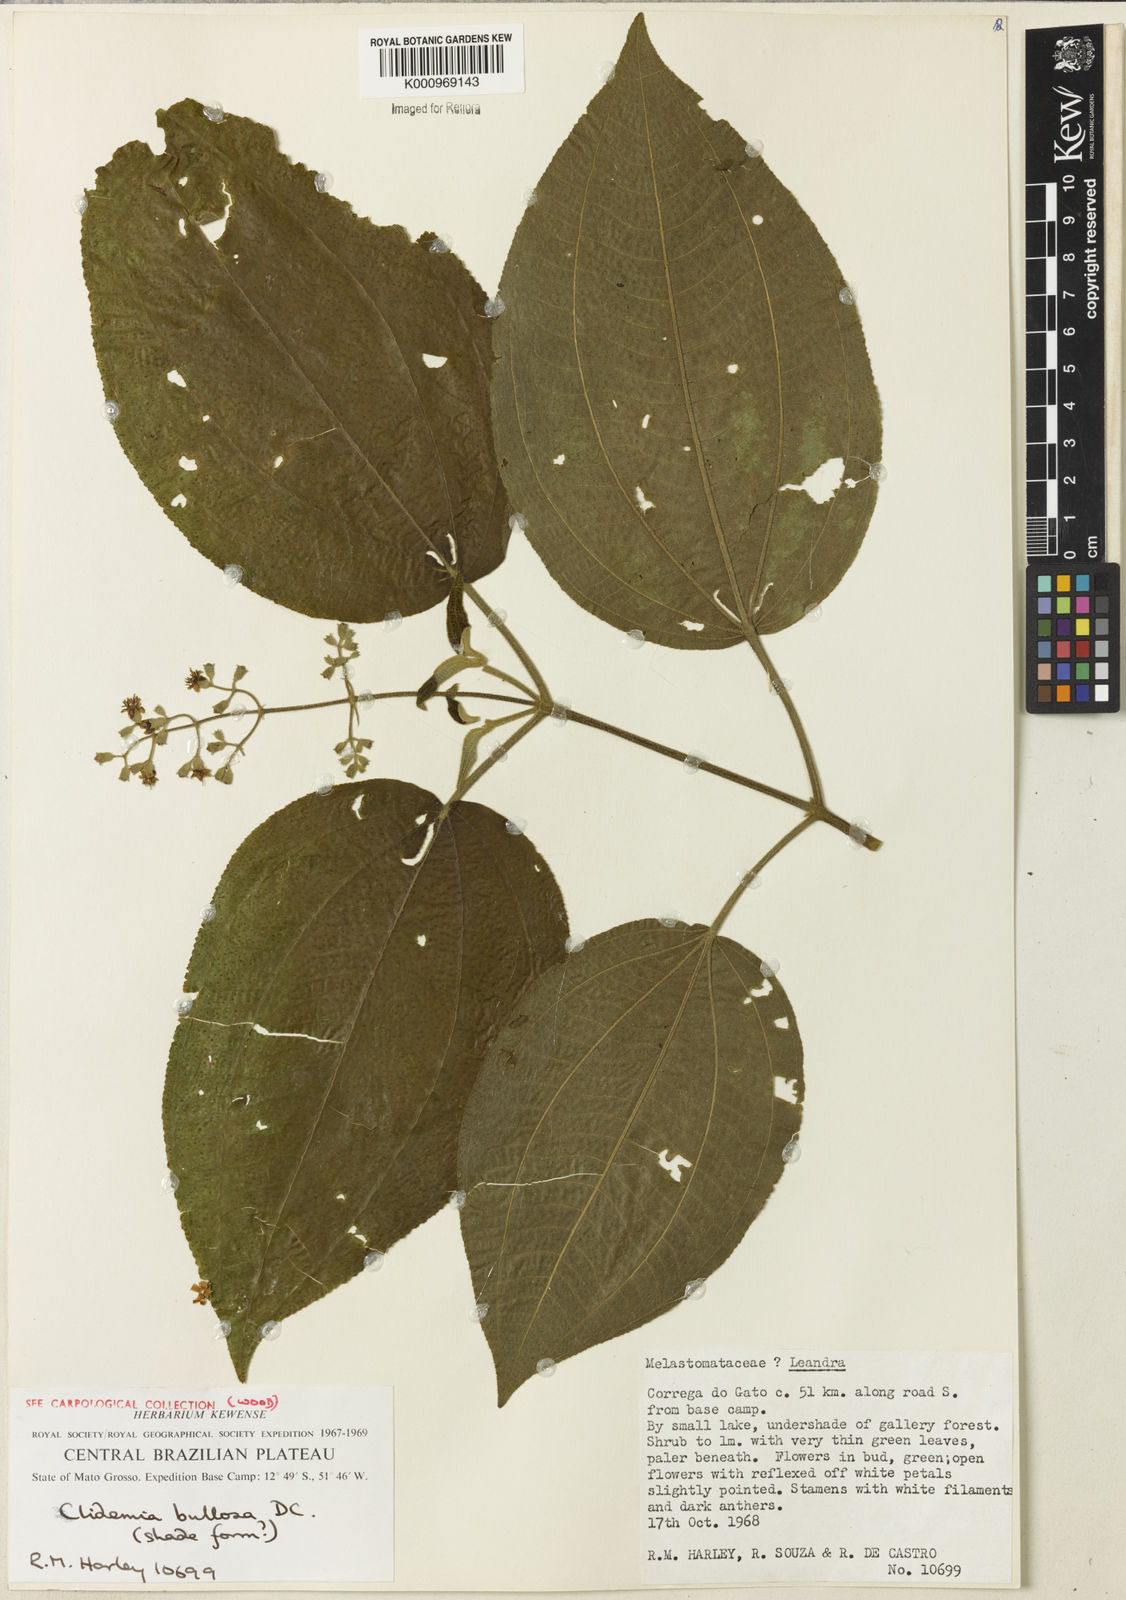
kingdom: Plantae
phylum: Tracheophyta
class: Magnoliopsida
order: Myrtales
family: Melastomataceae
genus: Miconia
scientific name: Miconia biserrata
